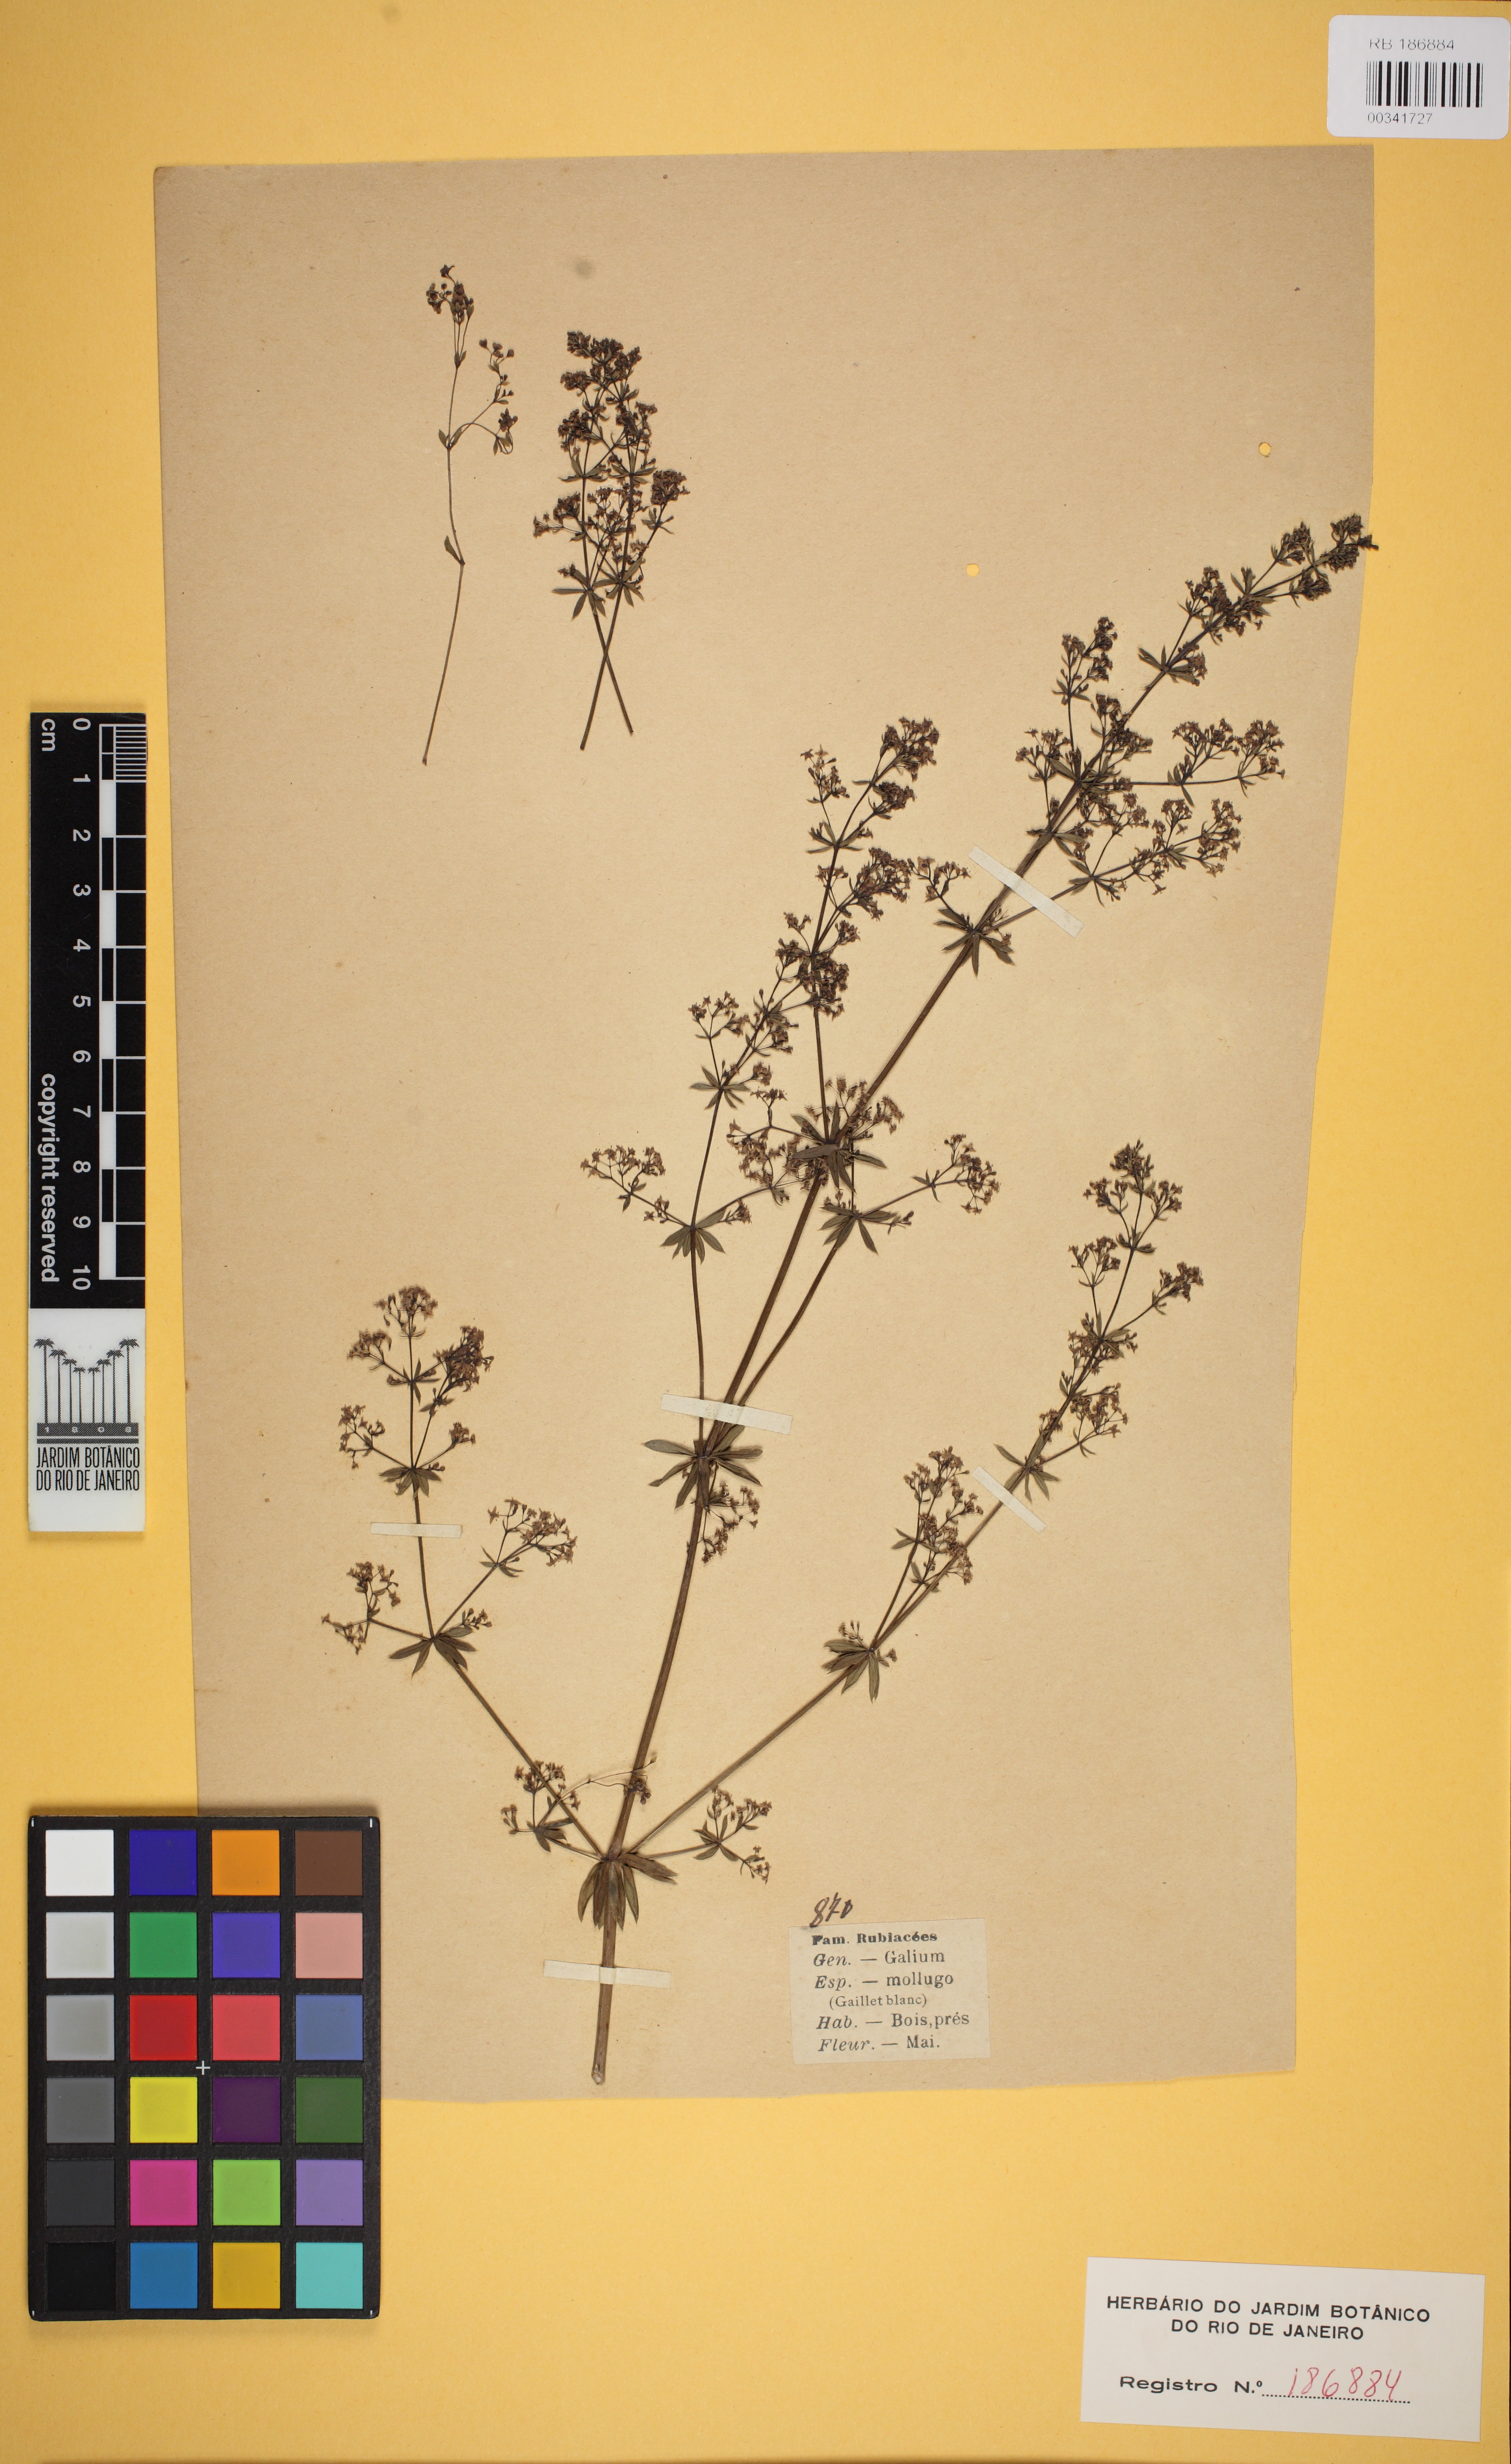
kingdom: Plantae
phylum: Tracheophyta
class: Magnoliopsida
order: Gentianales
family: Rubiaceae
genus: Galium
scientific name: Galium mollugo
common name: Hedge bedstraw
